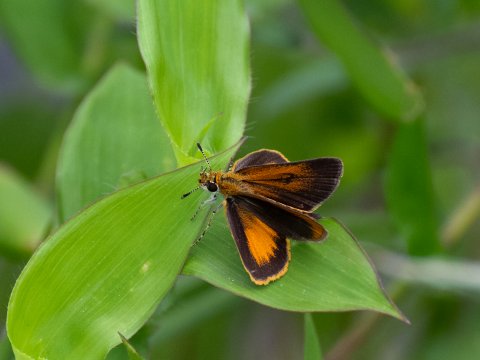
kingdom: Animalia
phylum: Arthropoda
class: Insecta
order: Lepidoptera
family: Hesperiidae
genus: Ancyloxypha
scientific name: Ancyloxypha numitor
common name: Least Skipper
